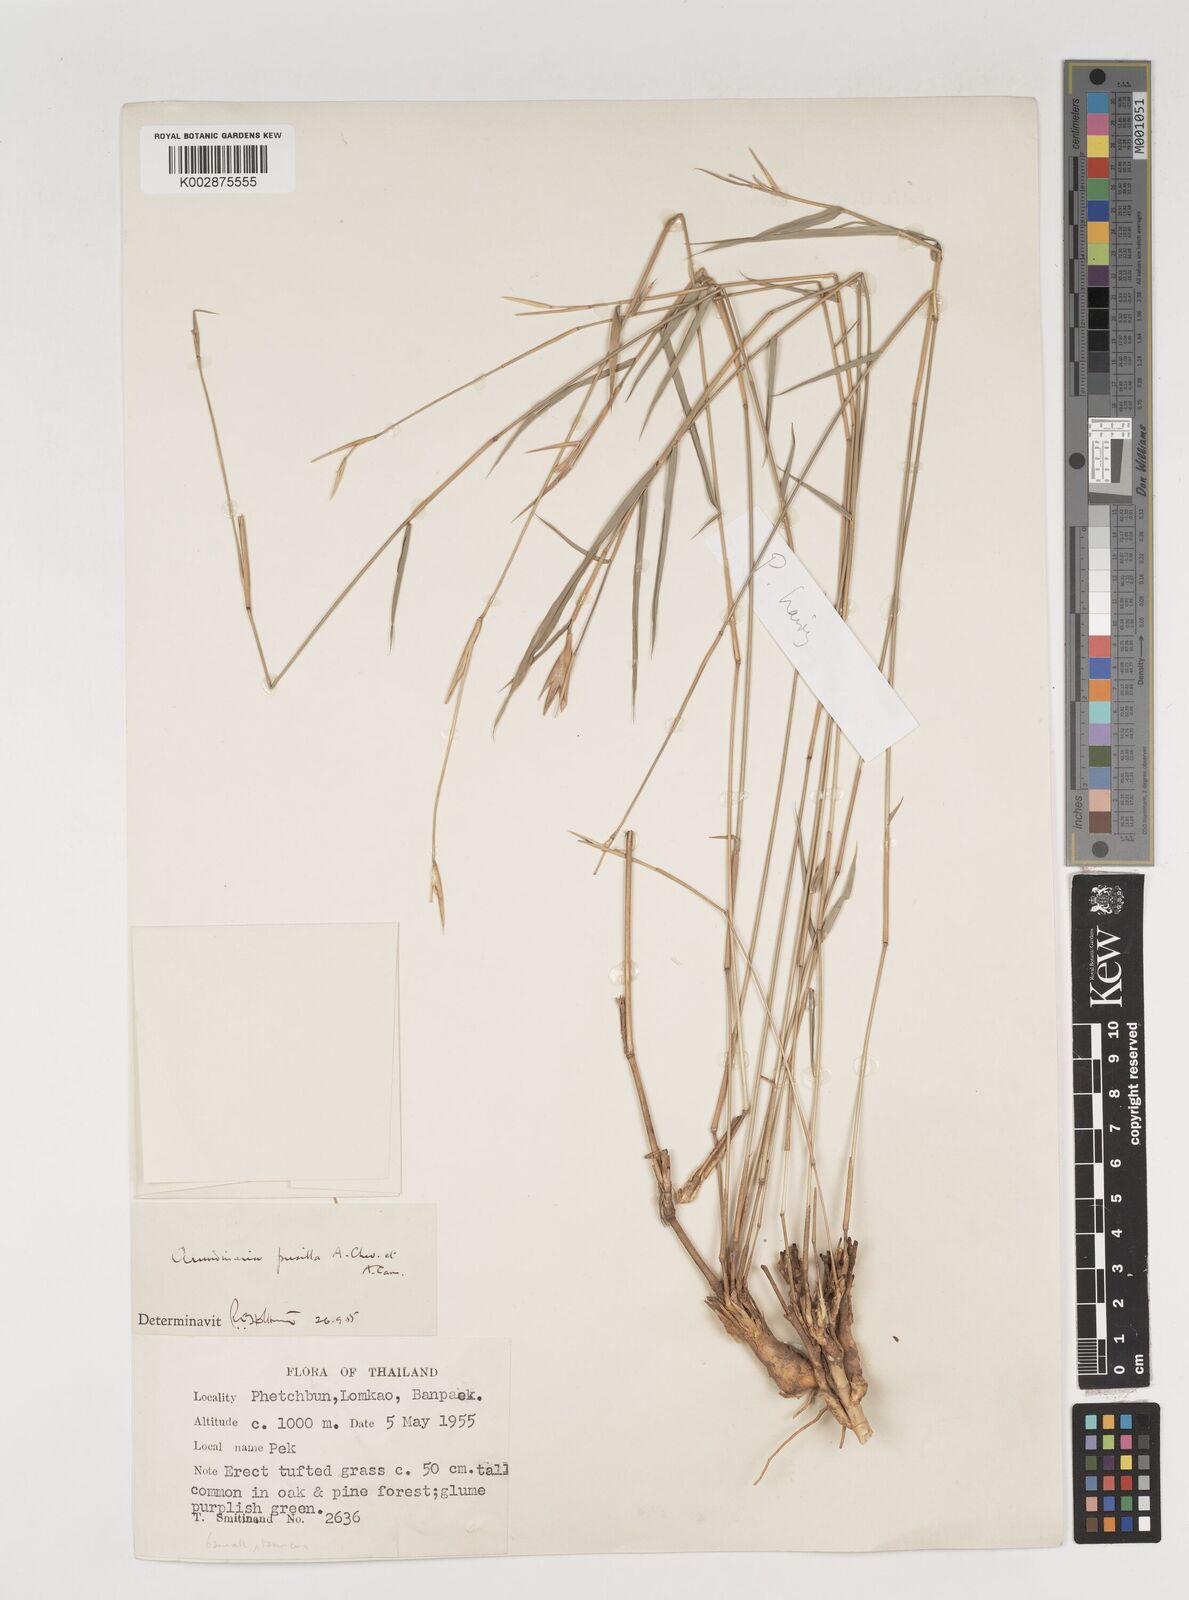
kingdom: Plantae
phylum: Tracheophyta
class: Liliopsida
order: Poales
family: Poaceae
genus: Vietnamosasa
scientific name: Vietnamosasa pusilla
